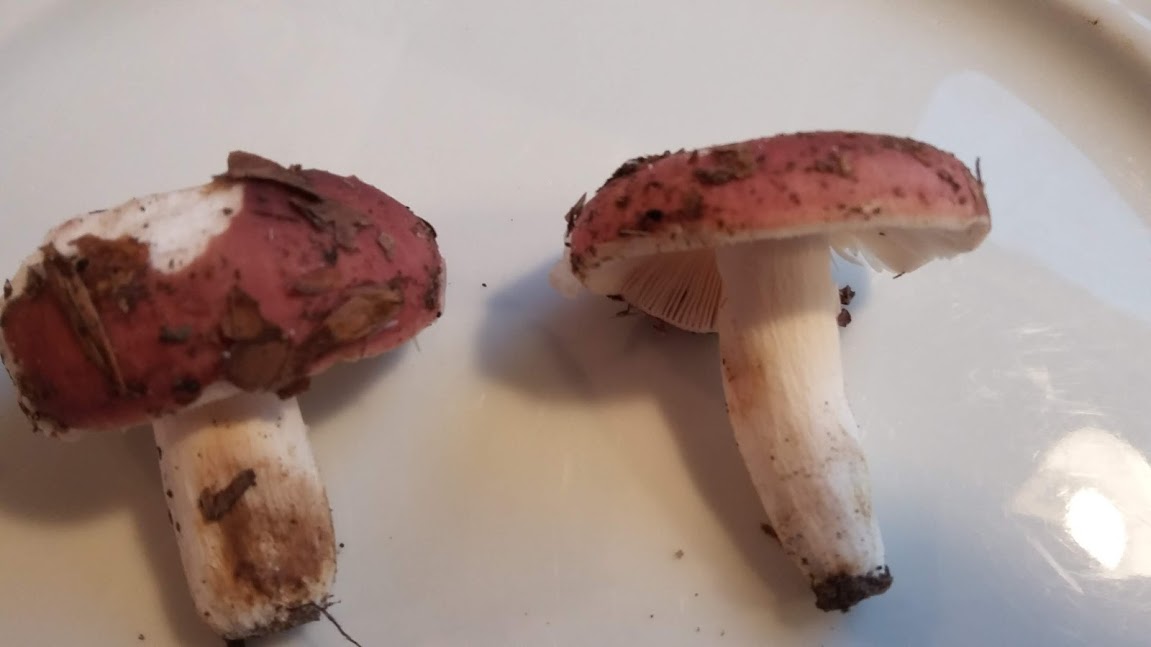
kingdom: Fungi
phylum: Basidiomycota
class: Agaricomycetes
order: Russulales
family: Russulaceae
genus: Russula
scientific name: Russula vesca
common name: spiselig skørhat
